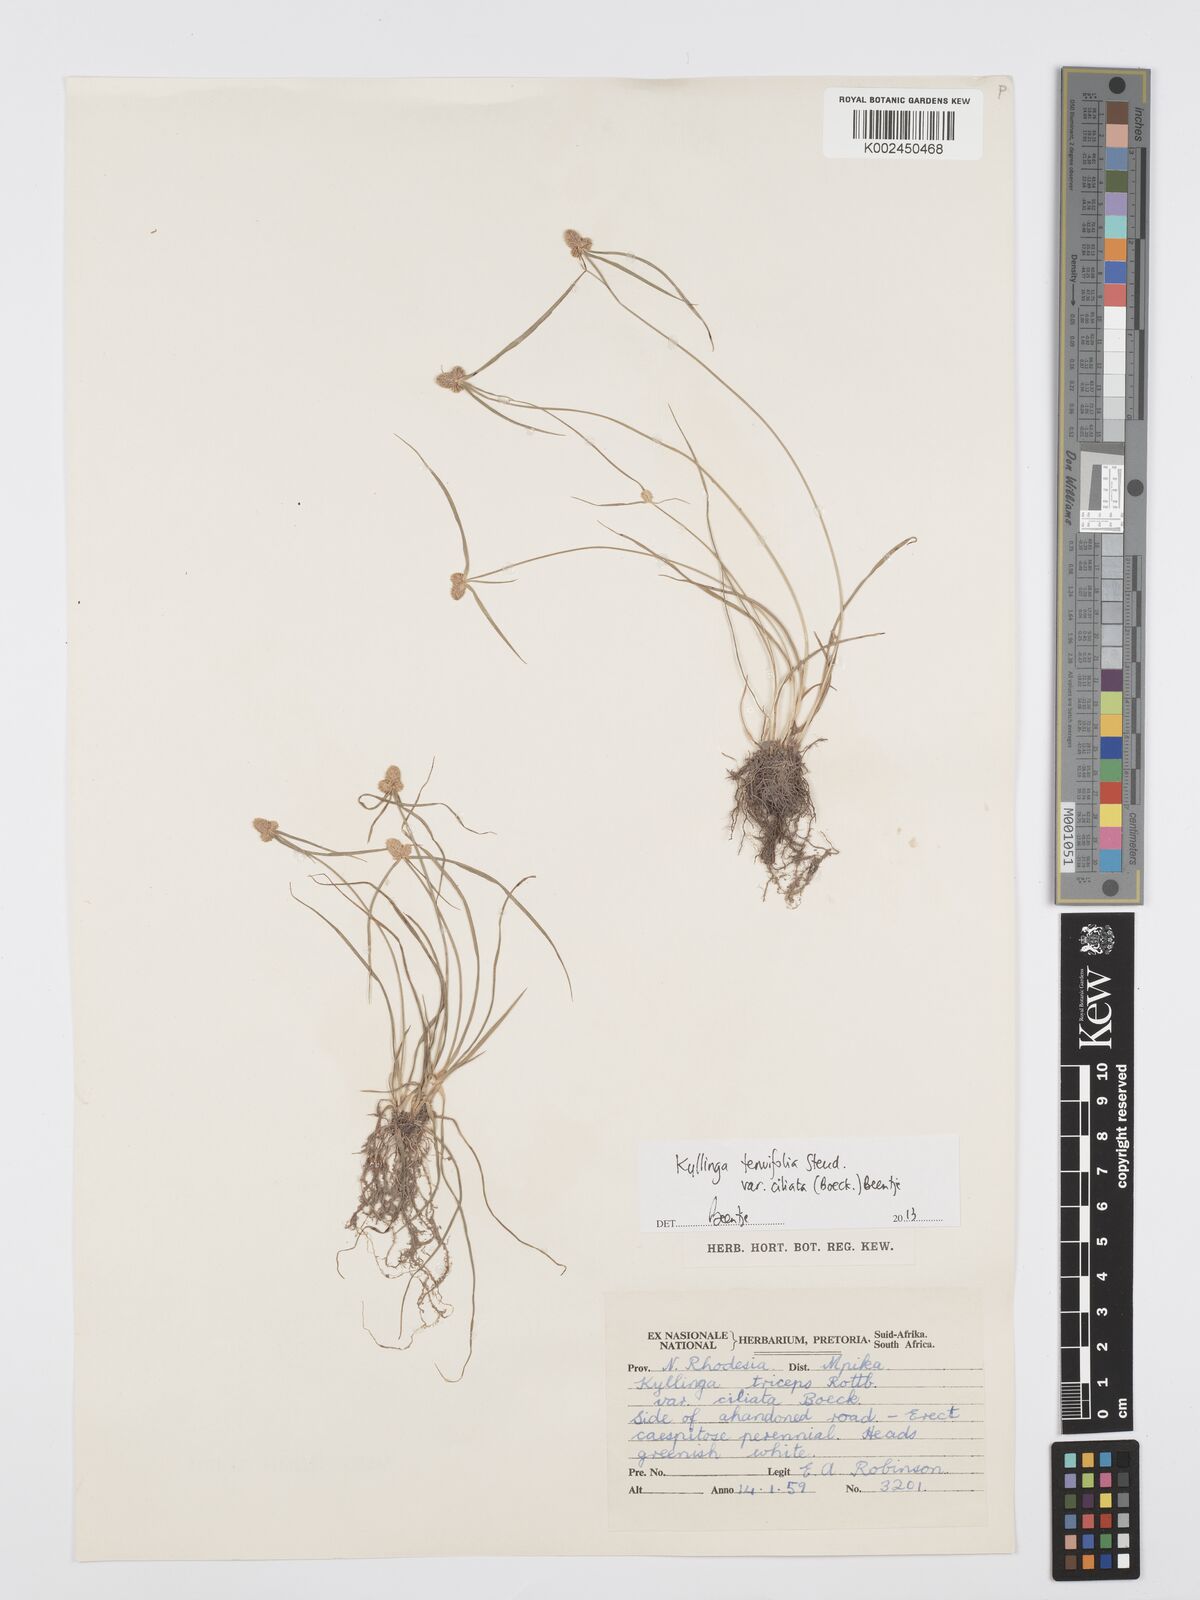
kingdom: Plantae
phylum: Tracheophyta
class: Liliopsida
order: Poales
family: Cyperaceae
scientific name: Cyperaceae
